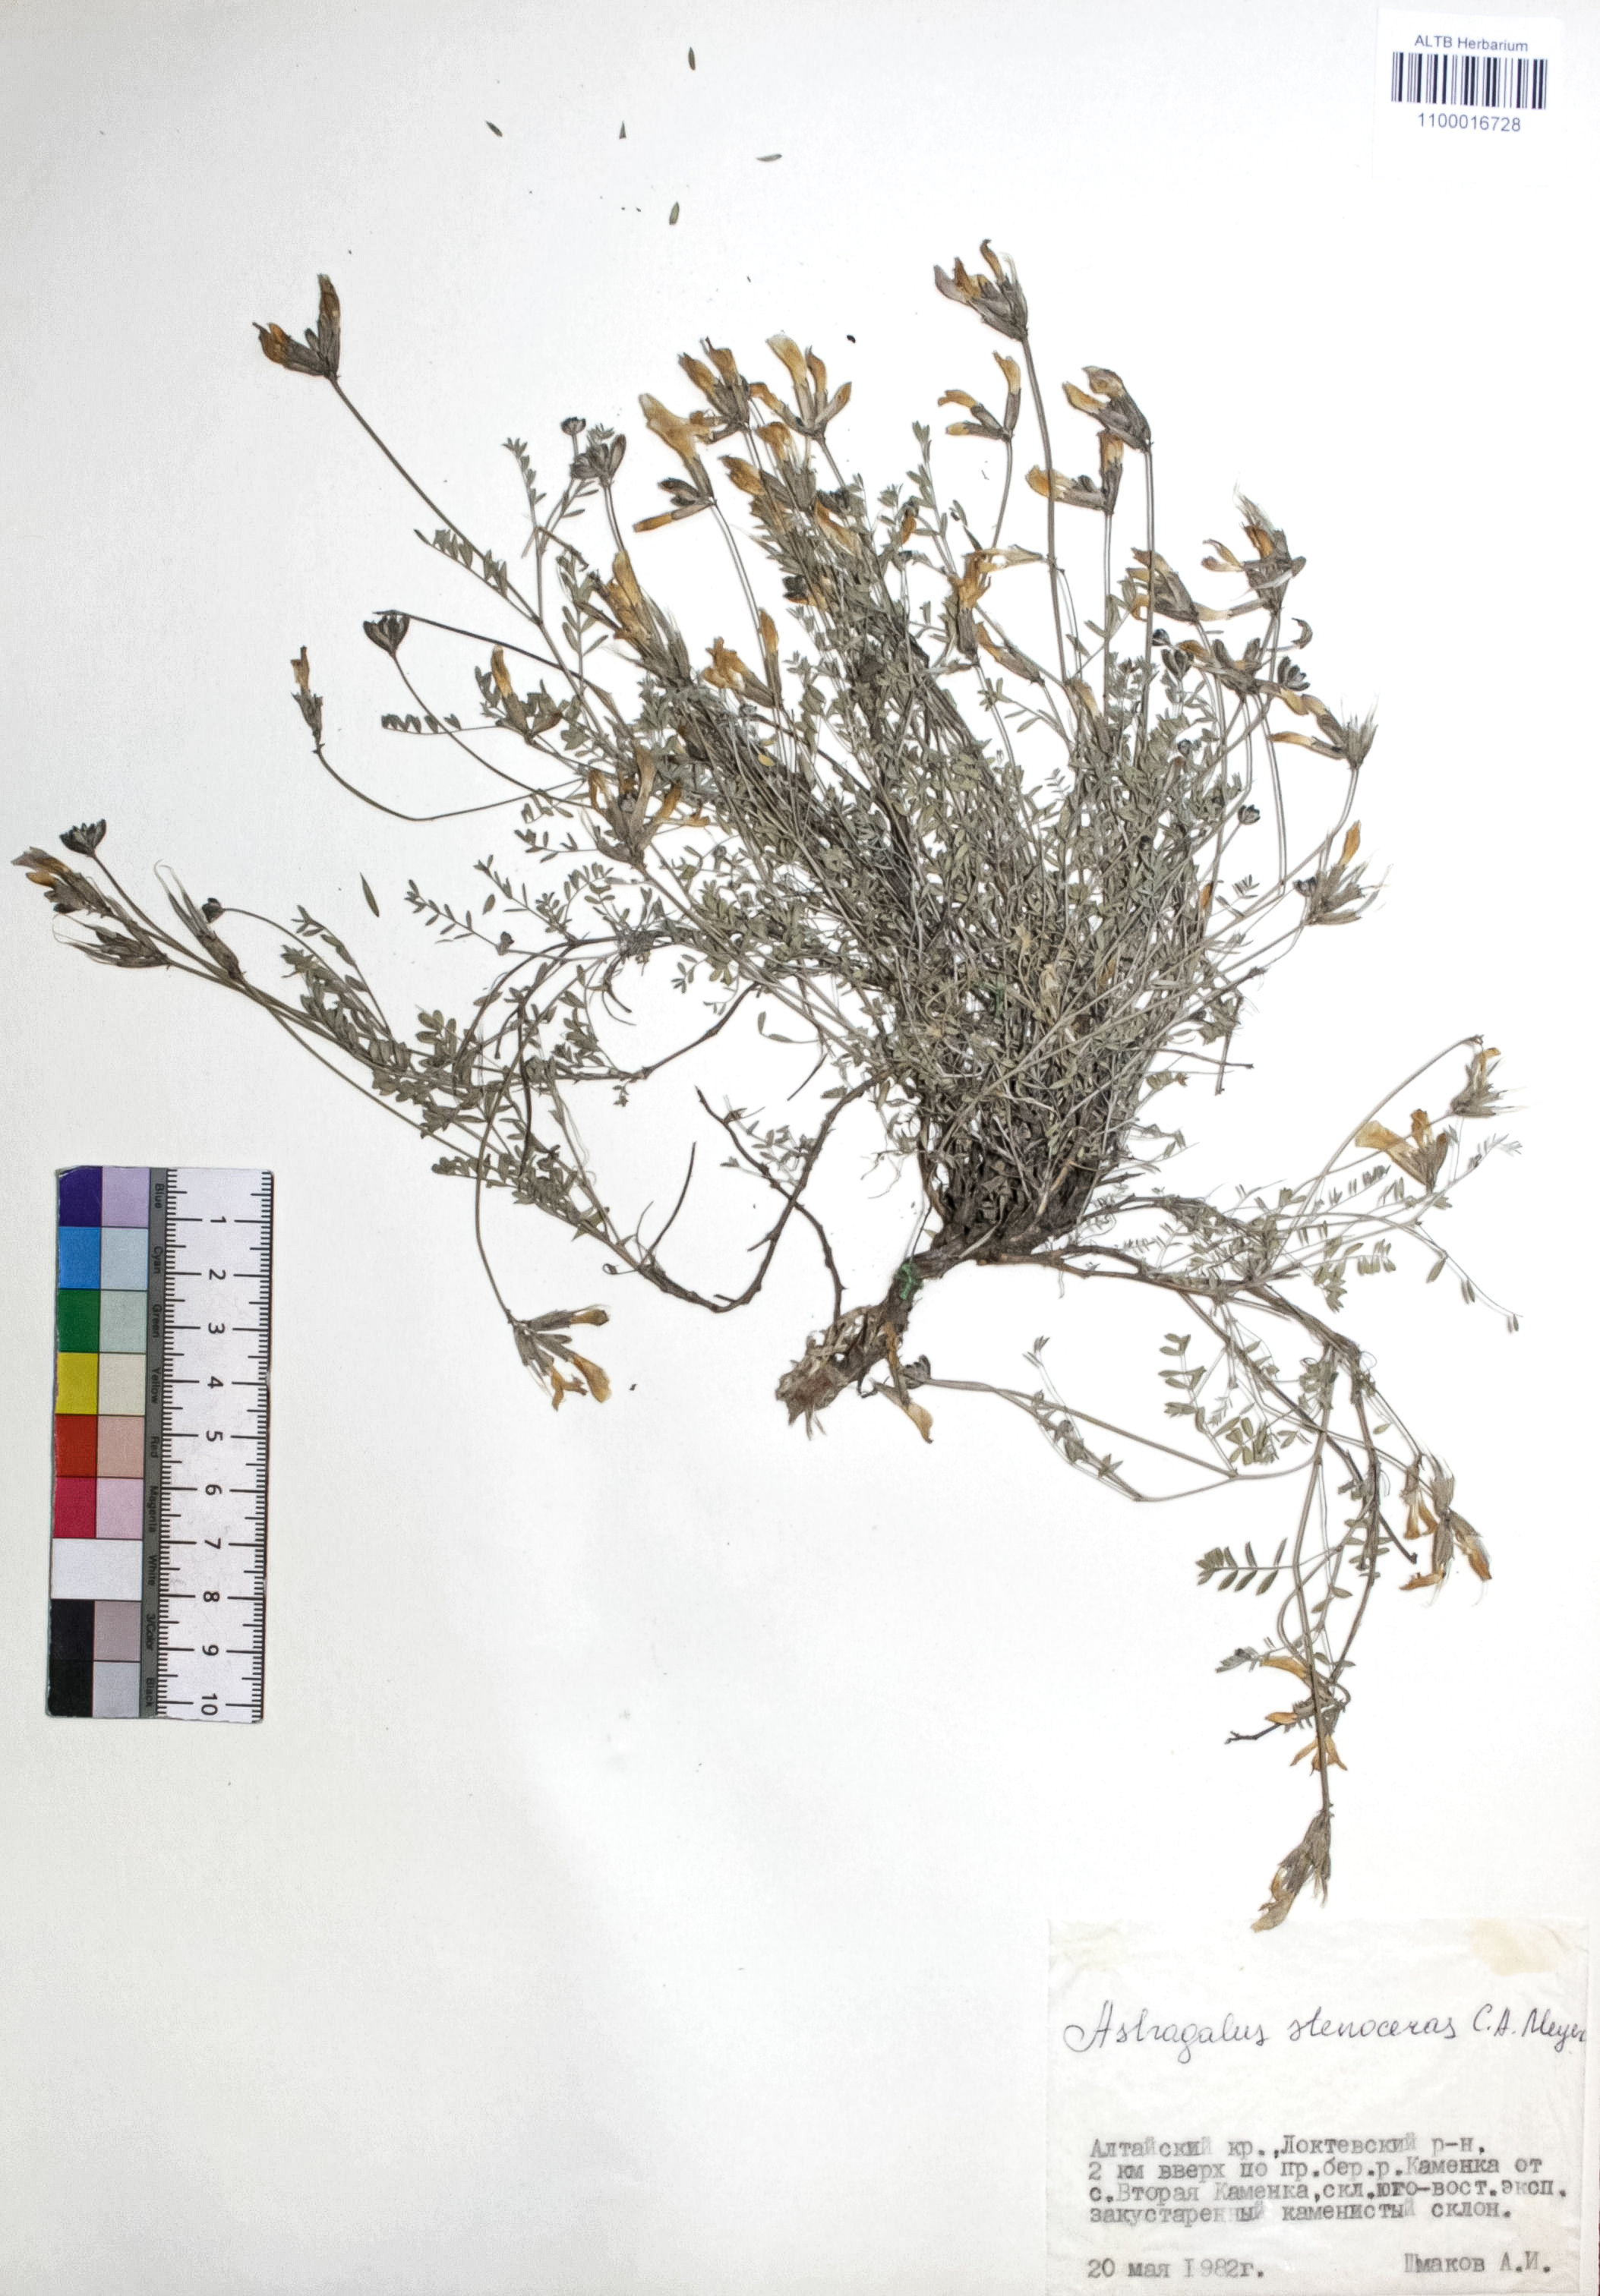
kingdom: Plantae
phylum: Tracheophyta
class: Magnoliopsida
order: Fabales
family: Fabaceae
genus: Astragalus
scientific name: Astragalus stenoceras
